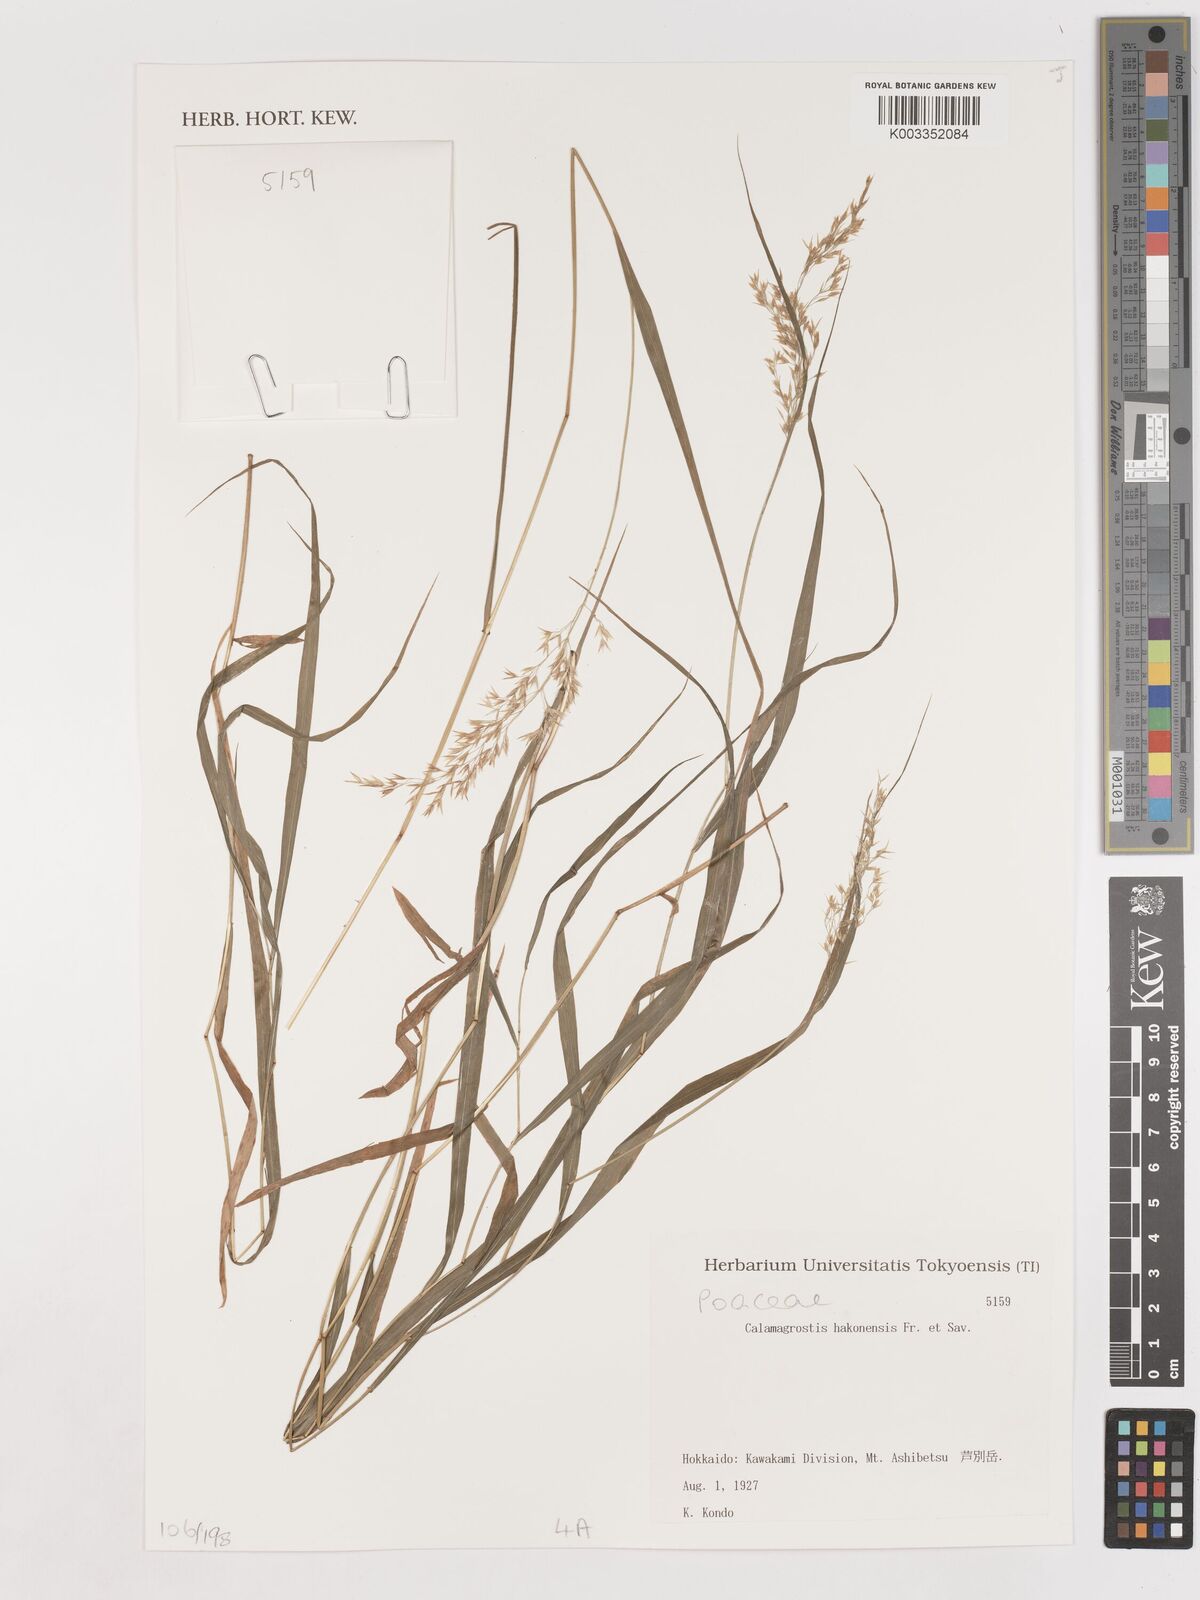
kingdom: Plantae
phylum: Tracheophyta
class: Liliopsida
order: Poales
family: Poaceae
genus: Calamagrostis
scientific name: Calamagrostis hakonensis
